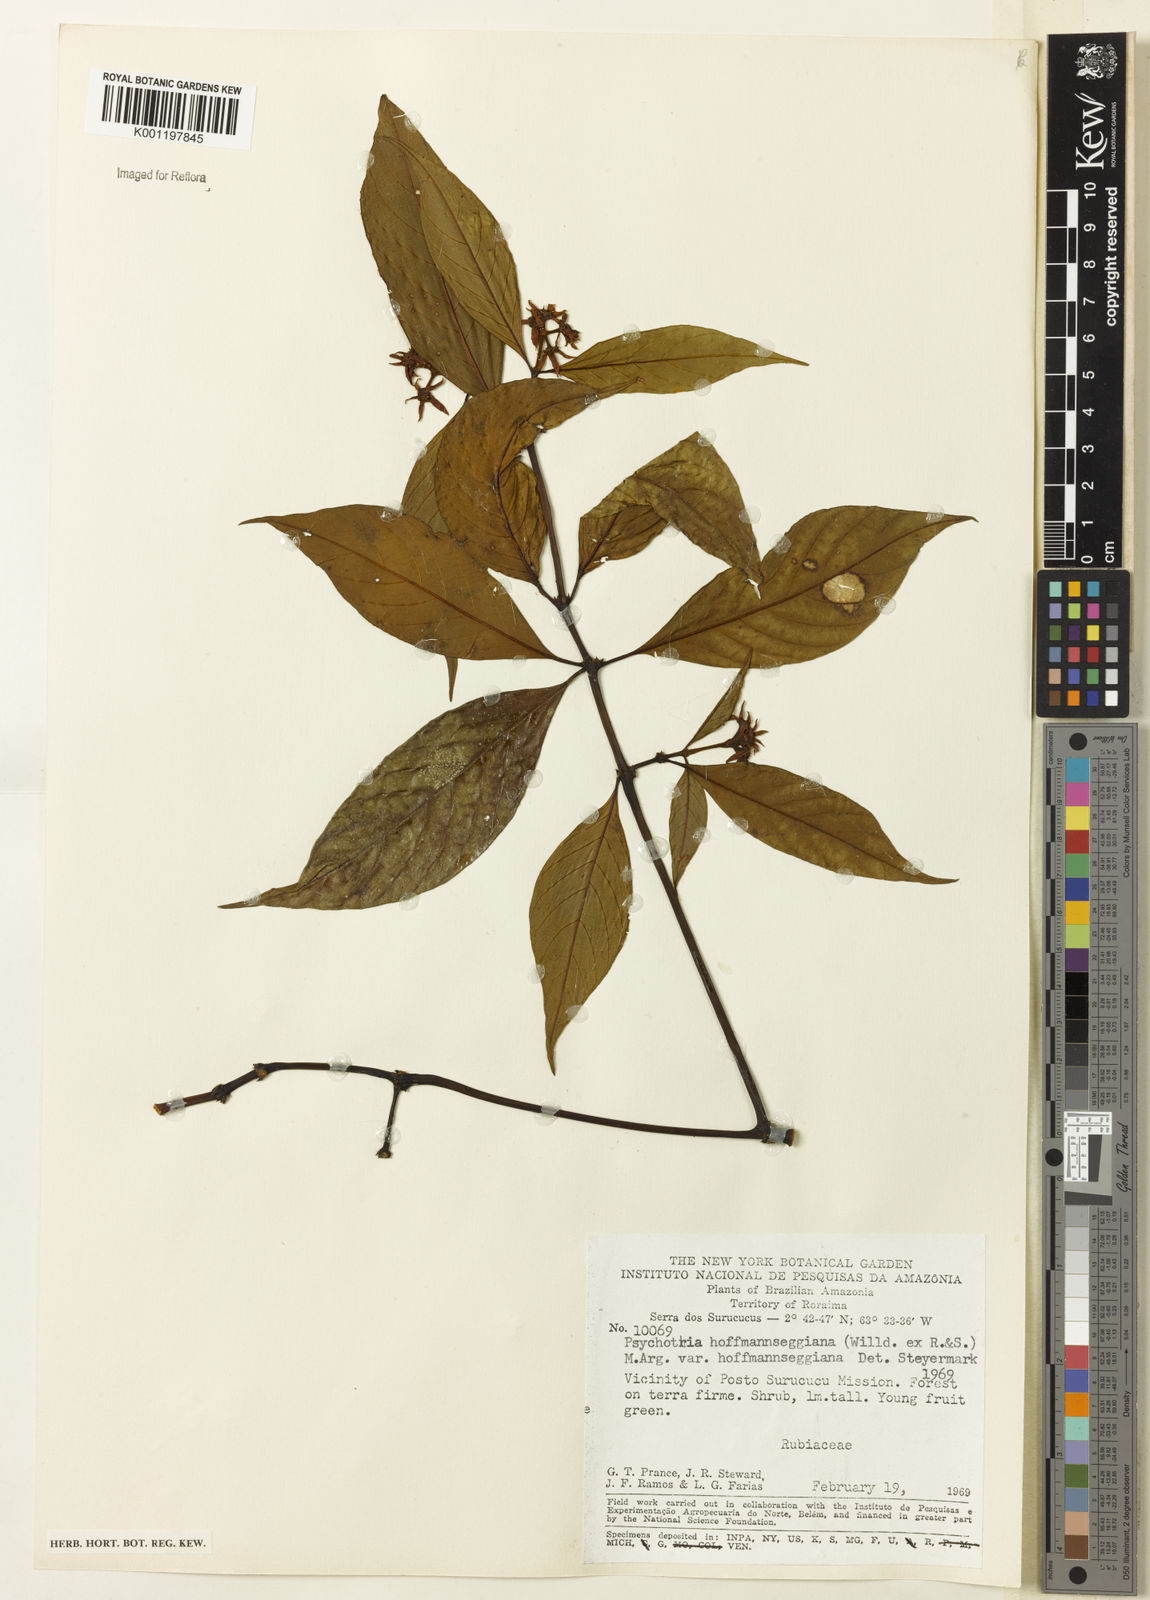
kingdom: Plantae
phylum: Tracheophyta
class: Magnoliopsida
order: Gentianales
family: Rubiaceae
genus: Psychotria
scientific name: Psychotria
